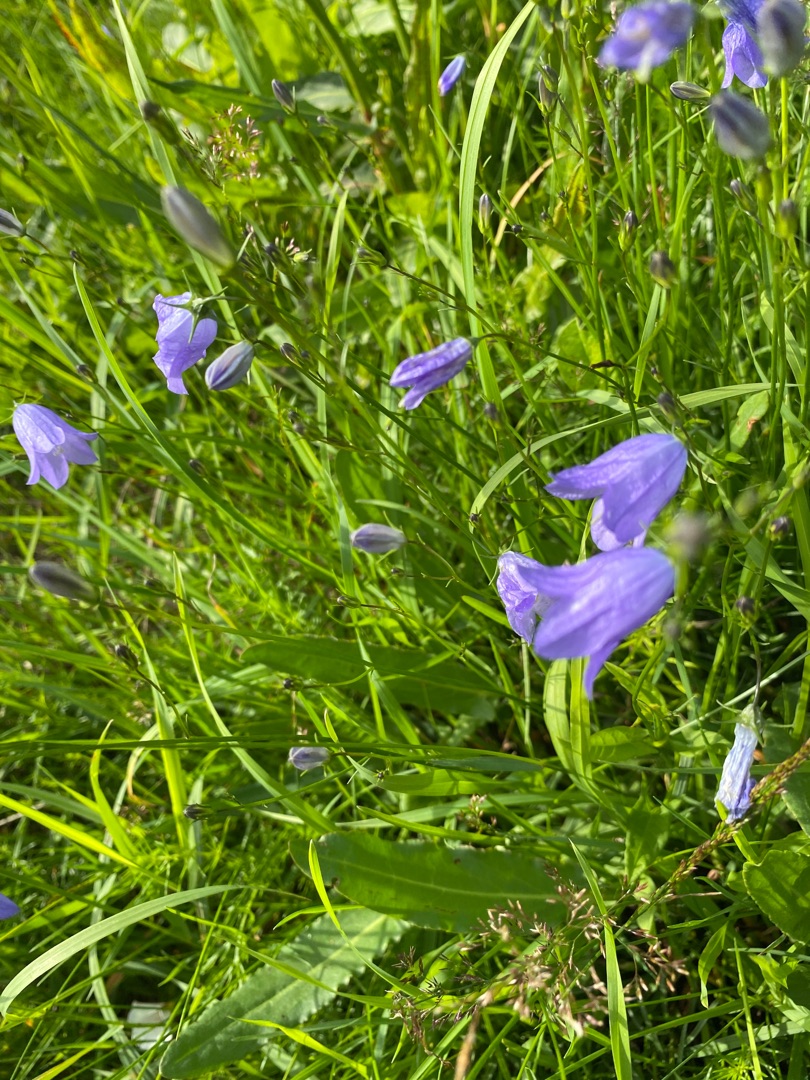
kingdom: Plantae
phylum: Tracheophyta
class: Magnoliopsida
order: Asterales
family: Campanulaceae
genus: Campanula
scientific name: Campanula rotundifolia
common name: Liden klokke
